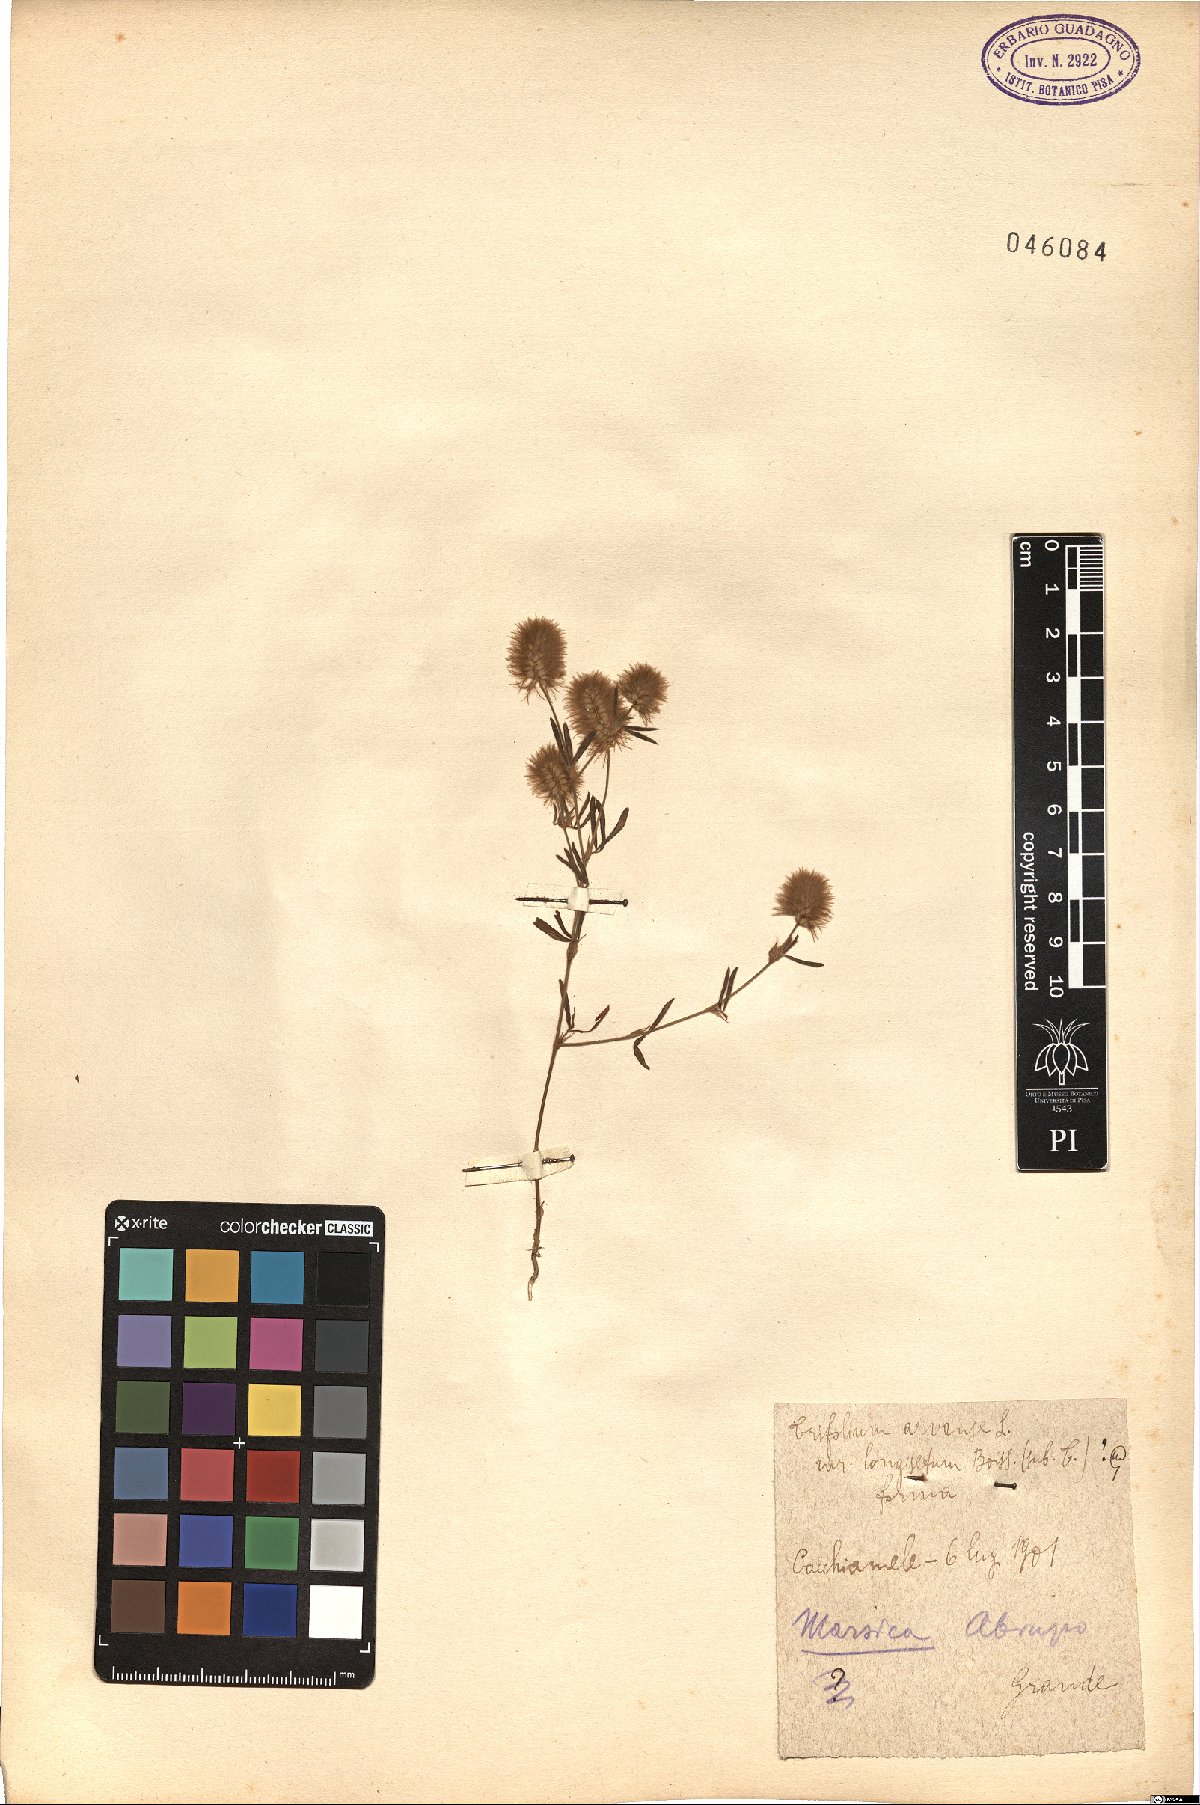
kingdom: Plantae
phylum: Tracheophyta
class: Magnoliopsida
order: Fabales
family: Fabaceae
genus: Trifolium
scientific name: Trifolium arvense
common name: Hare's-foot clover
